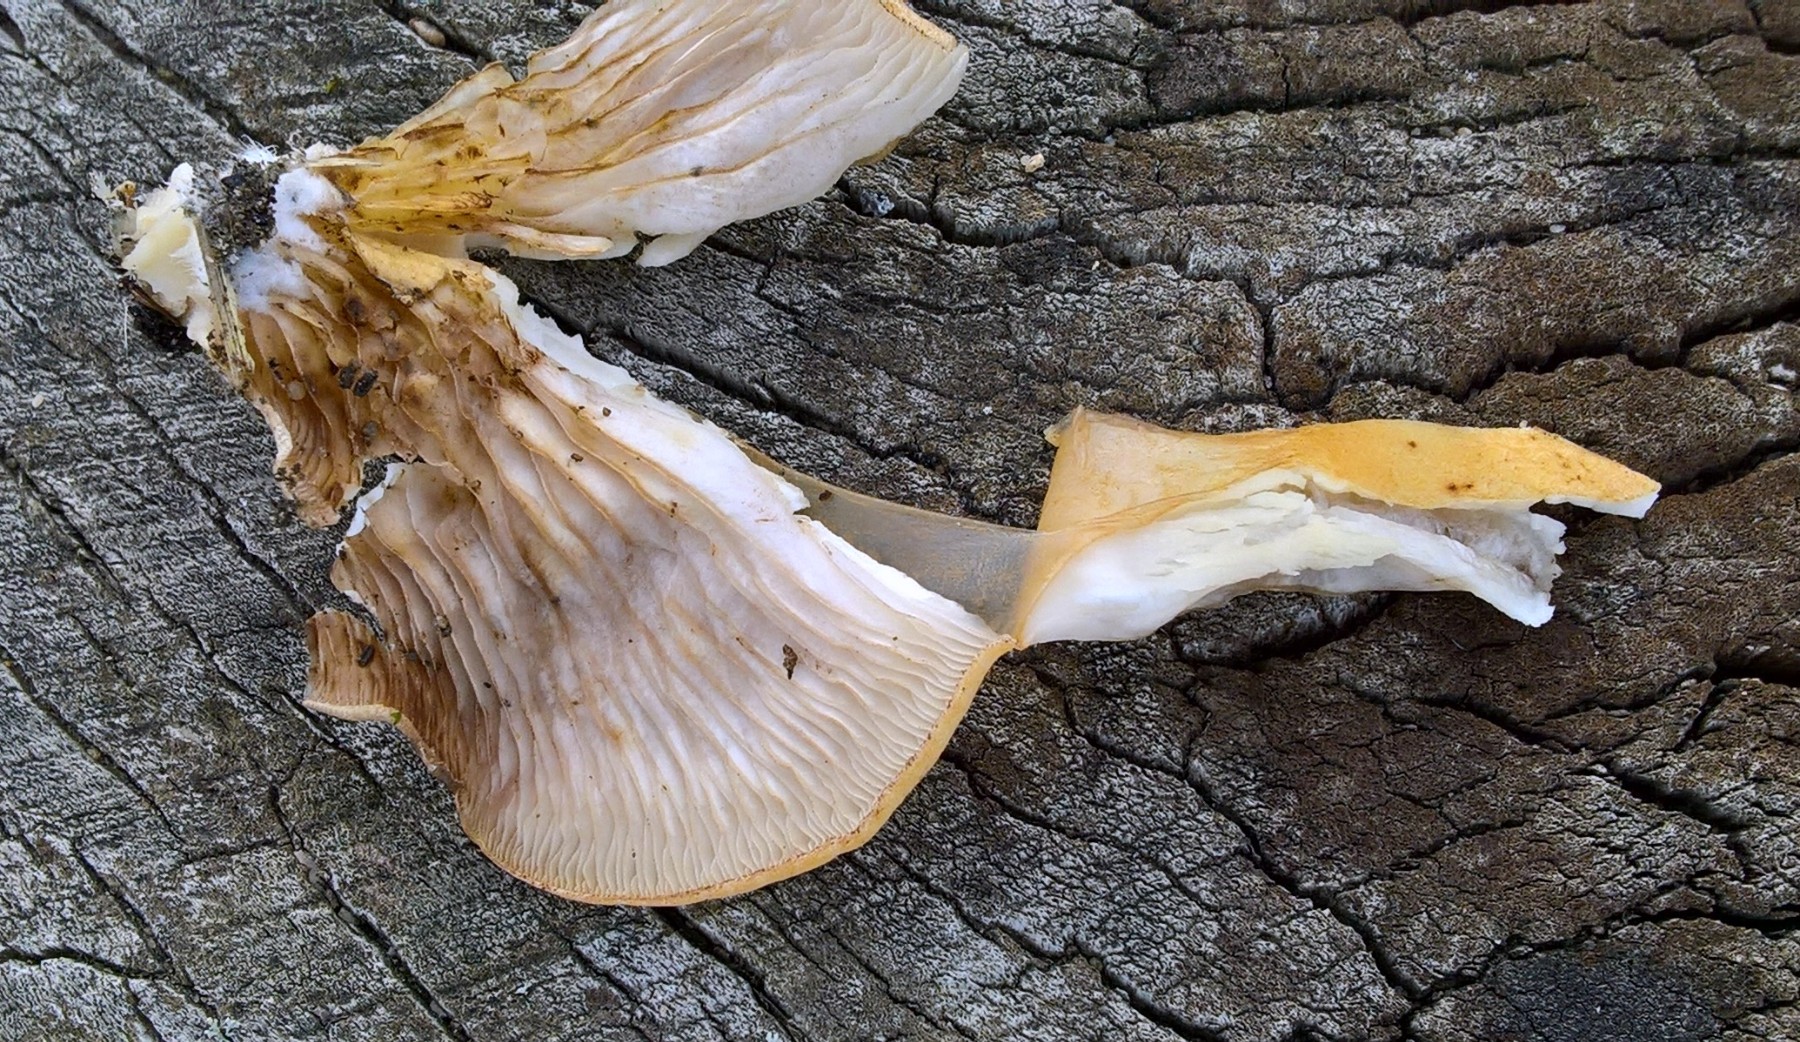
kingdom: Fungi
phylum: Basidiomycota
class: Agaricomycetes
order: Agaricales
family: Crepidotaceae
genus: Crepidotus
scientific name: Crepidotus mollis
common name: blød muslingesvamp
